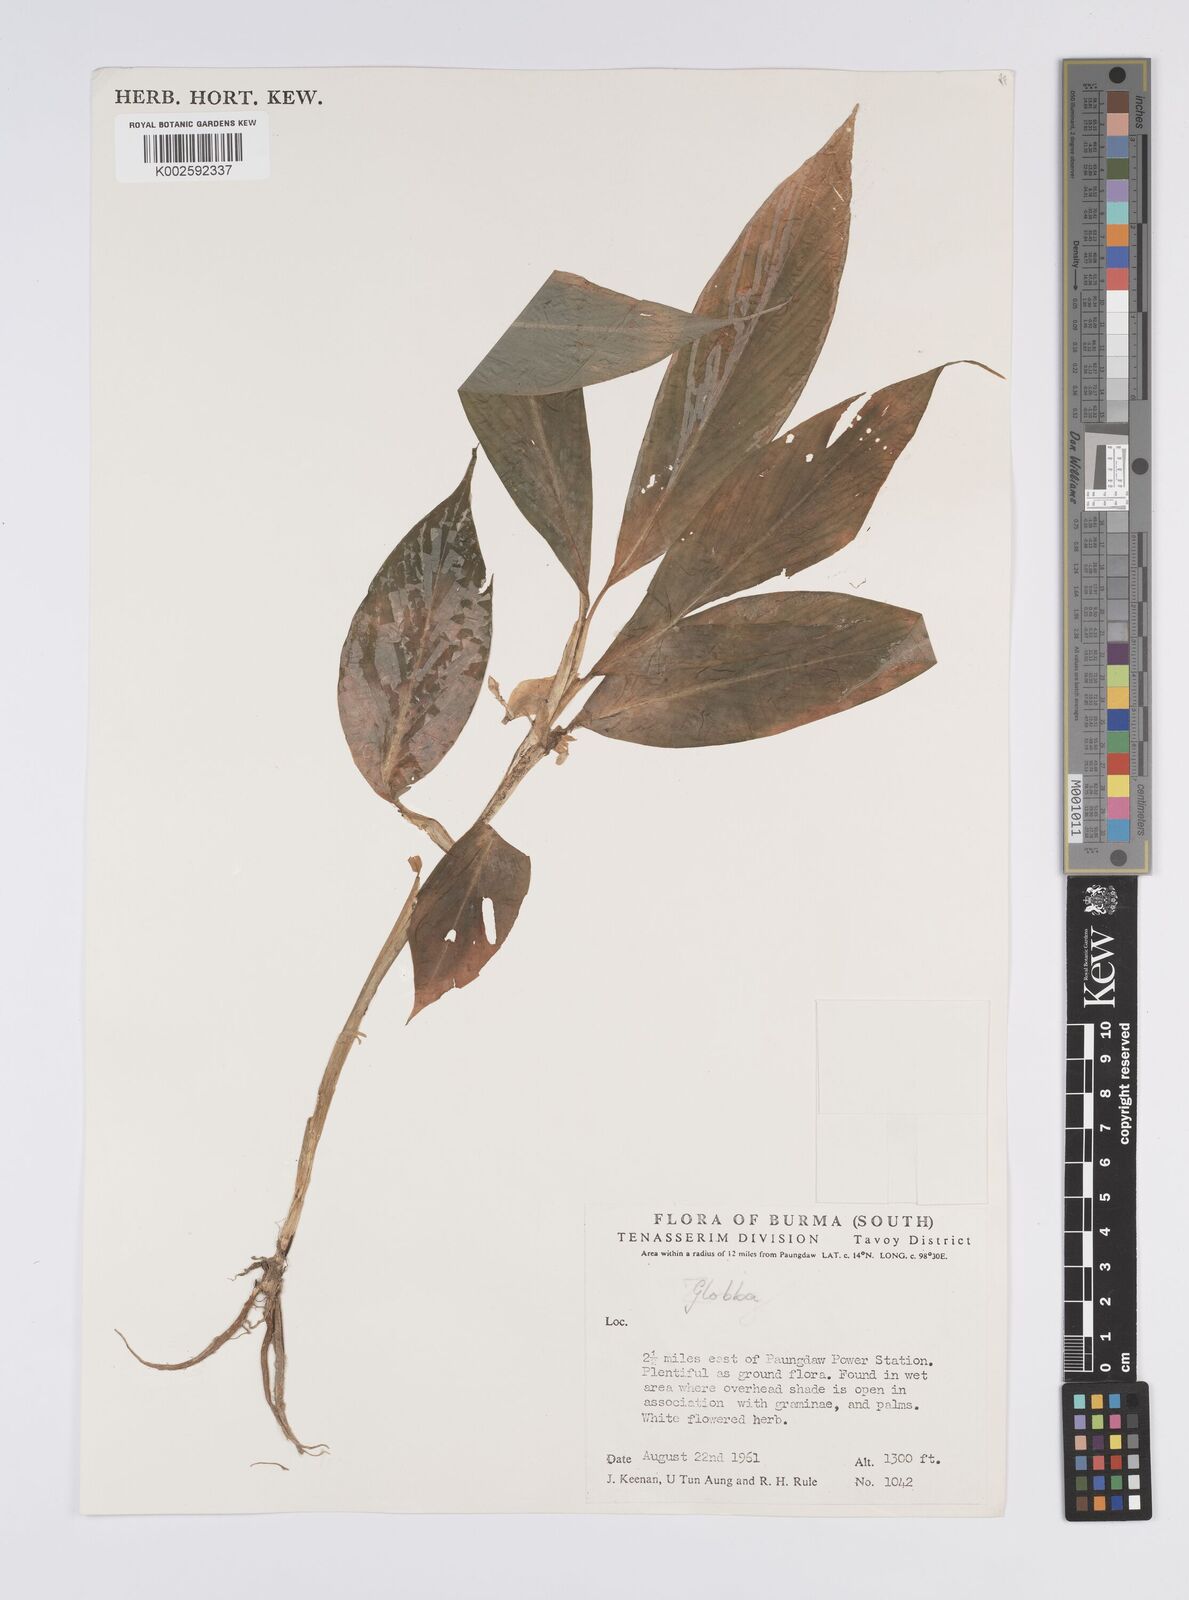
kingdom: Plantae
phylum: Tracheophyta
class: Liliopsida
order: Zingiberales
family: Zingiberaceae
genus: Globba
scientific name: Globba
